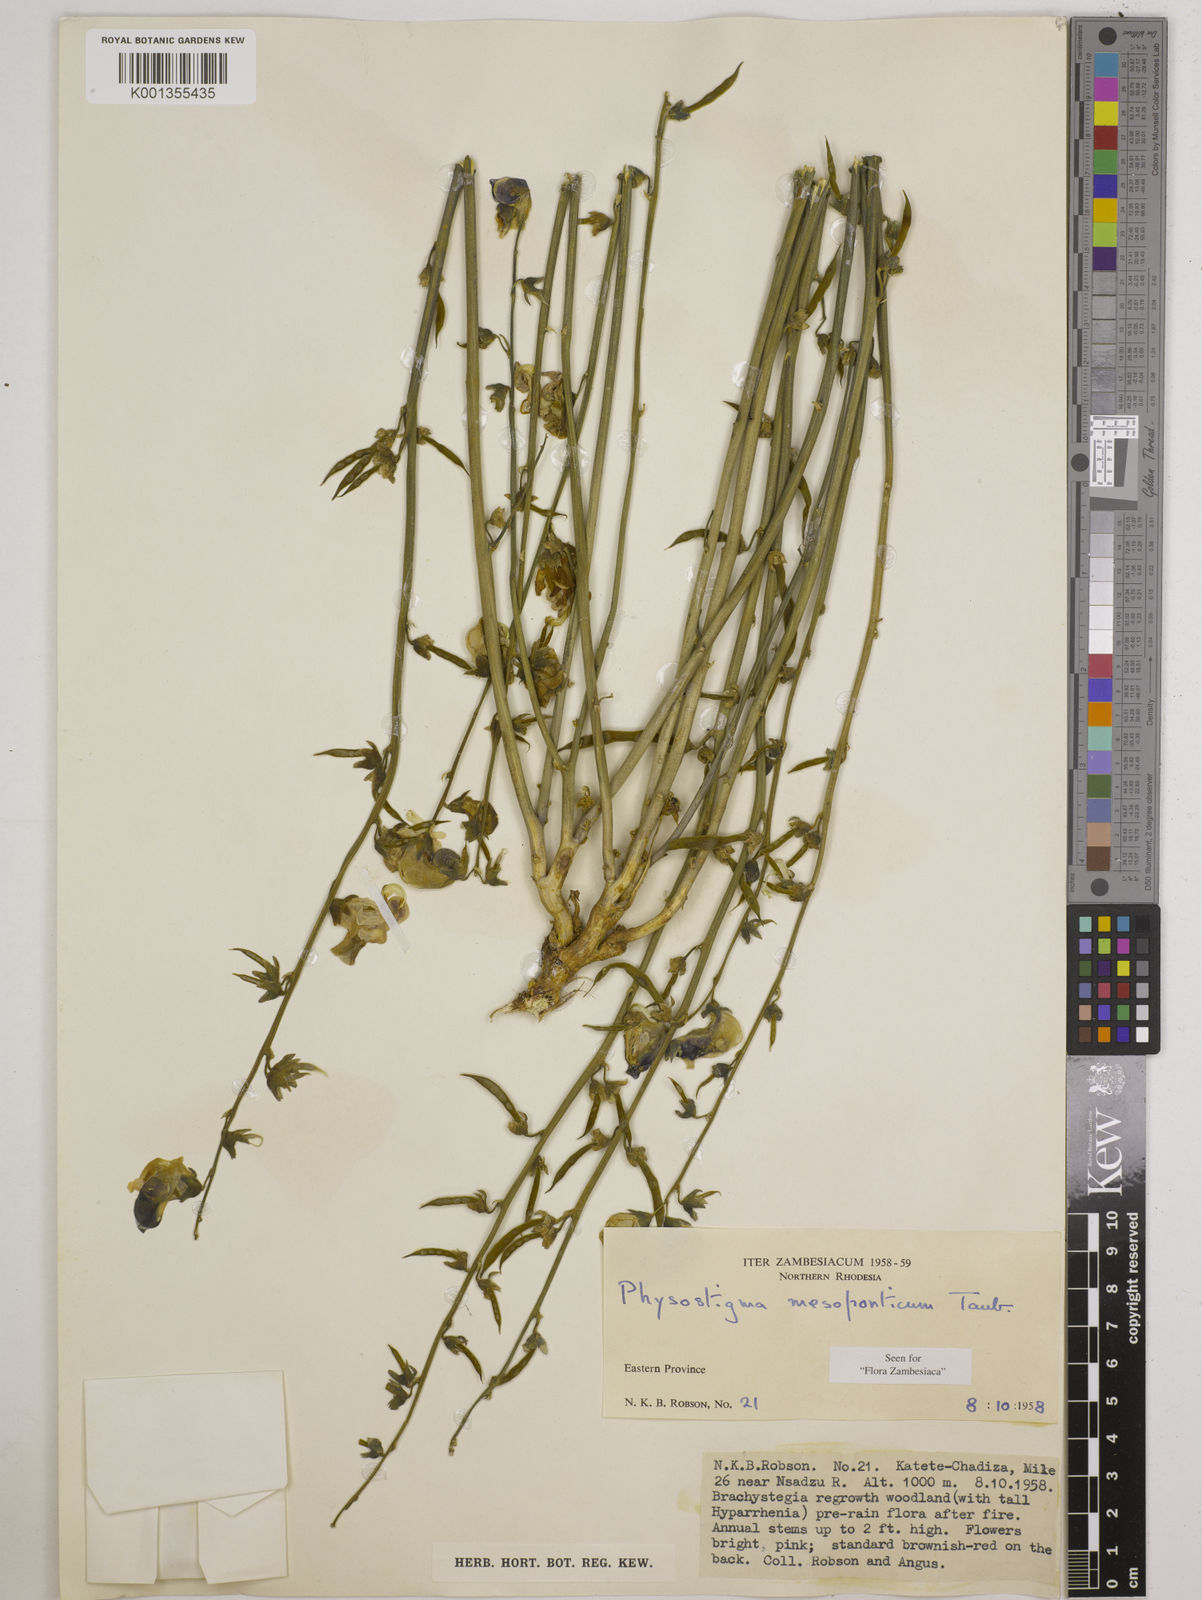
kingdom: Plantae
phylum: Tracheophyta
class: Magnoliopsida
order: Fabales
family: Fabaceae
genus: Physostigma
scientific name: Physostigma mesoponticum
